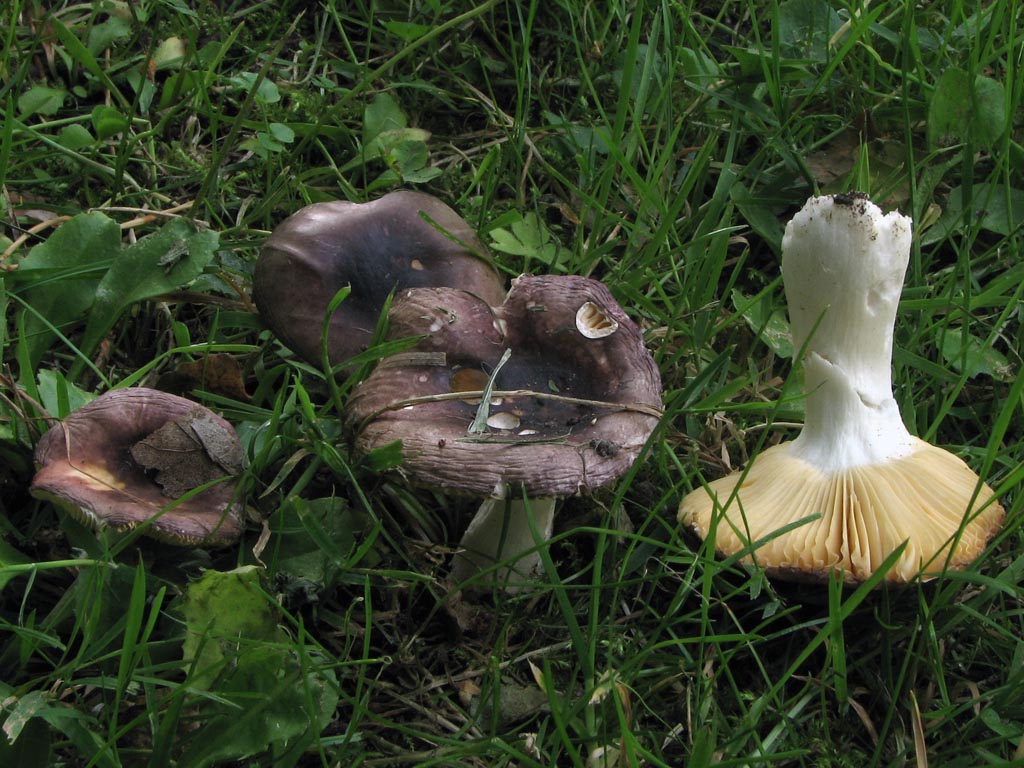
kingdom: Fungi
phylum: Basidiomycota
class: Agaricomycetes
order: Russulales
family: Russulaceae
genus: Russula
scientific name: Russula cessans
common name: fyrre-skørhat
